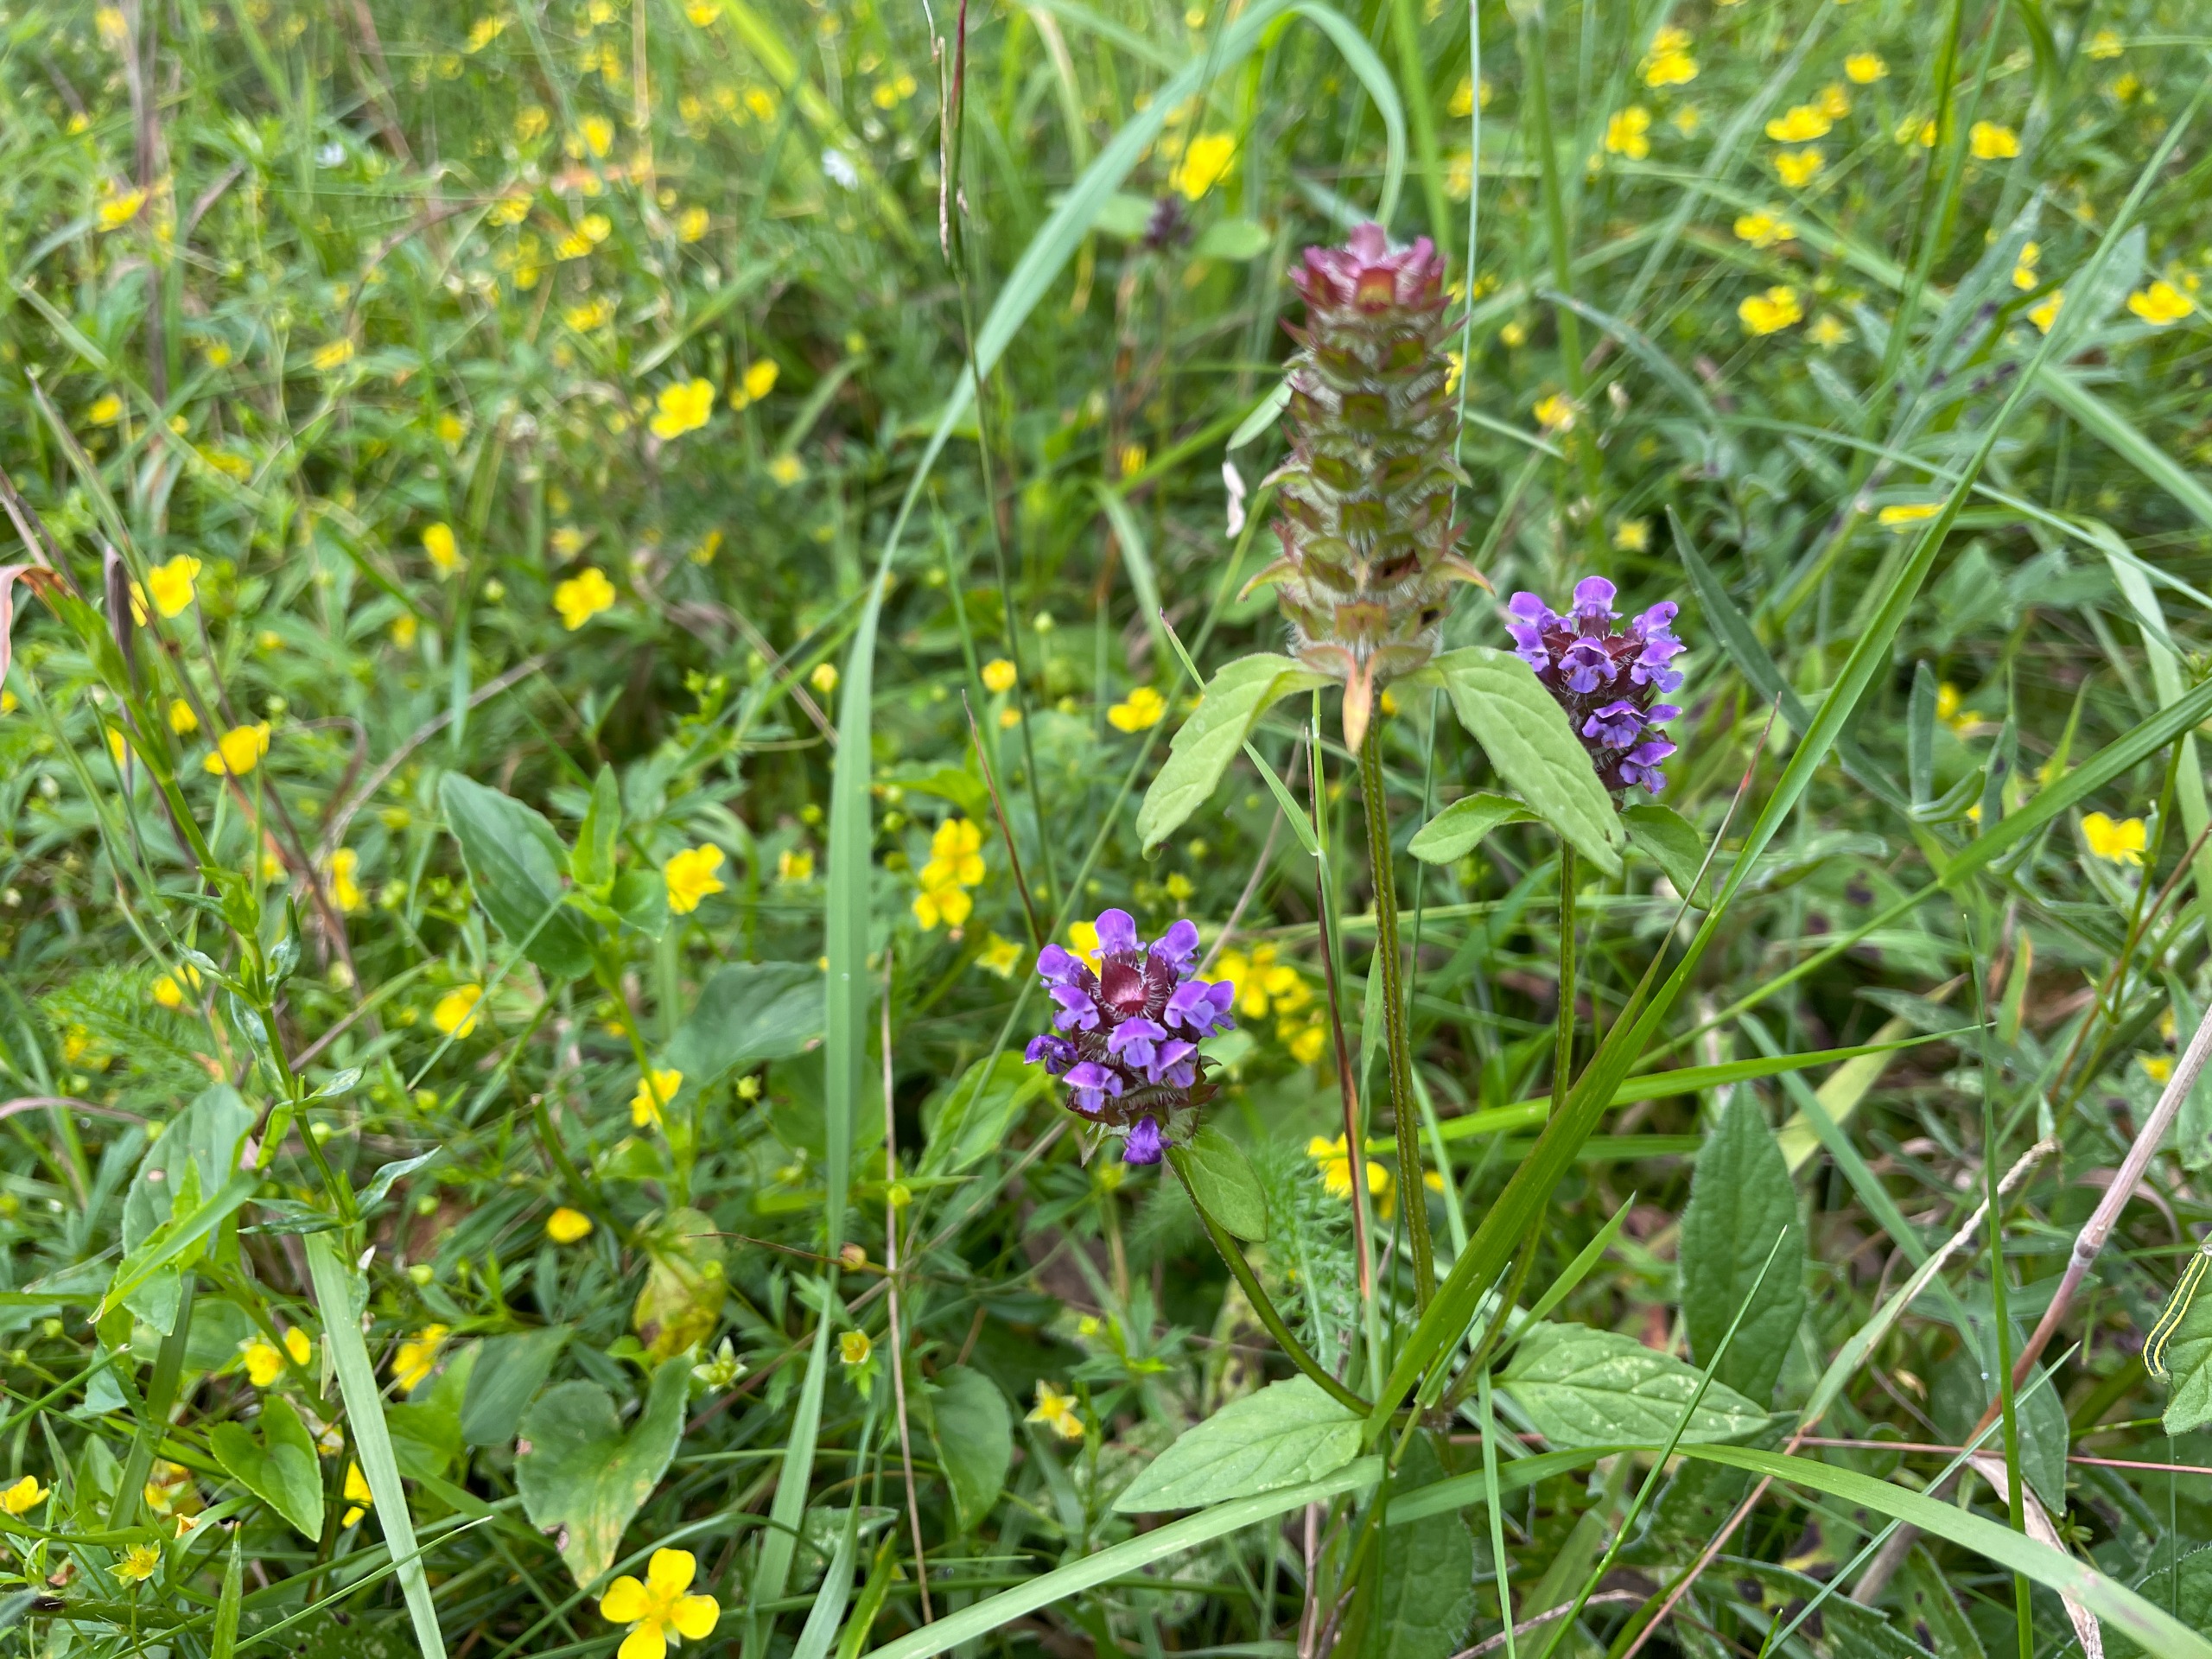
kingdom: Plantae
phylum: Tracheophyta
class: Magnoliopsida
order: Lamiales
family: Lamiaceae
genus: Prunella
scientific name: Prunella vulgaris
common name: Almindelig brunelle
